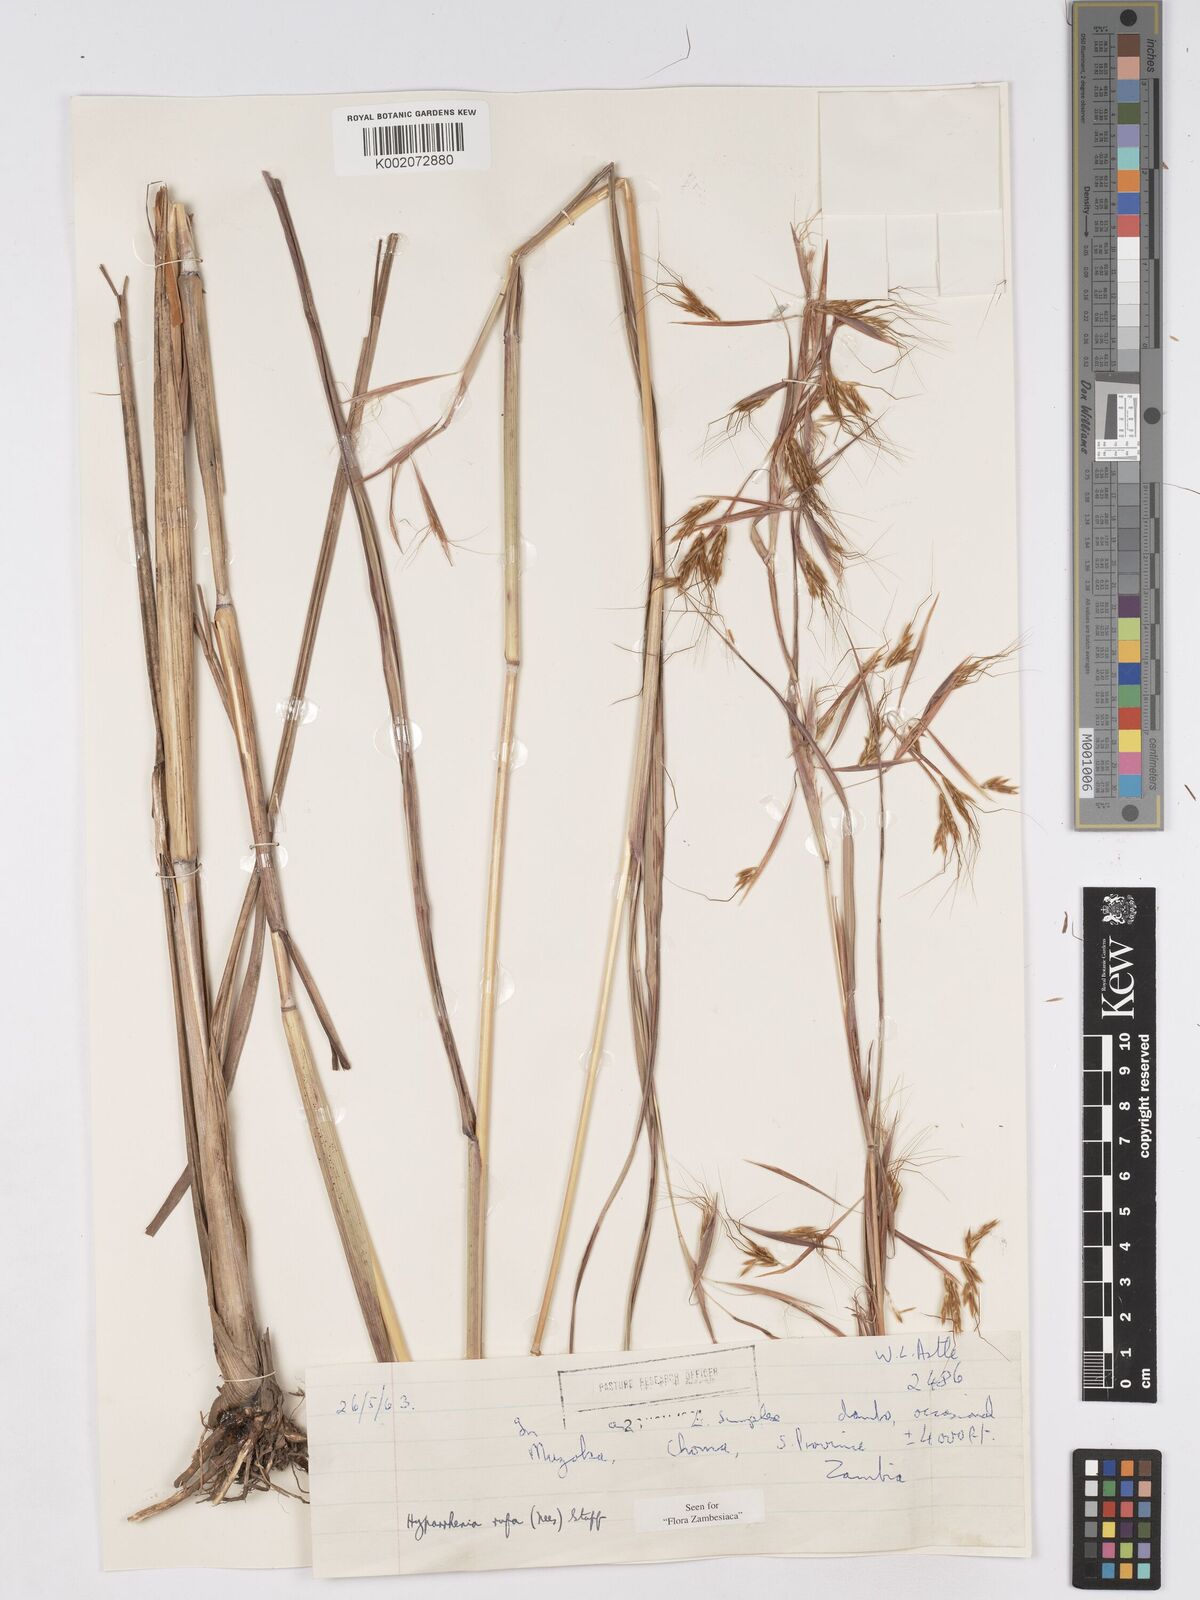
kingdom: Plantae
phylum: Tracheophyta
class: Liliopsida
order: Poales
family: Poaceae
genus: Hyparrhenia
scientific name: Hyparrhenia rufa
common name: Jaraguagrass
